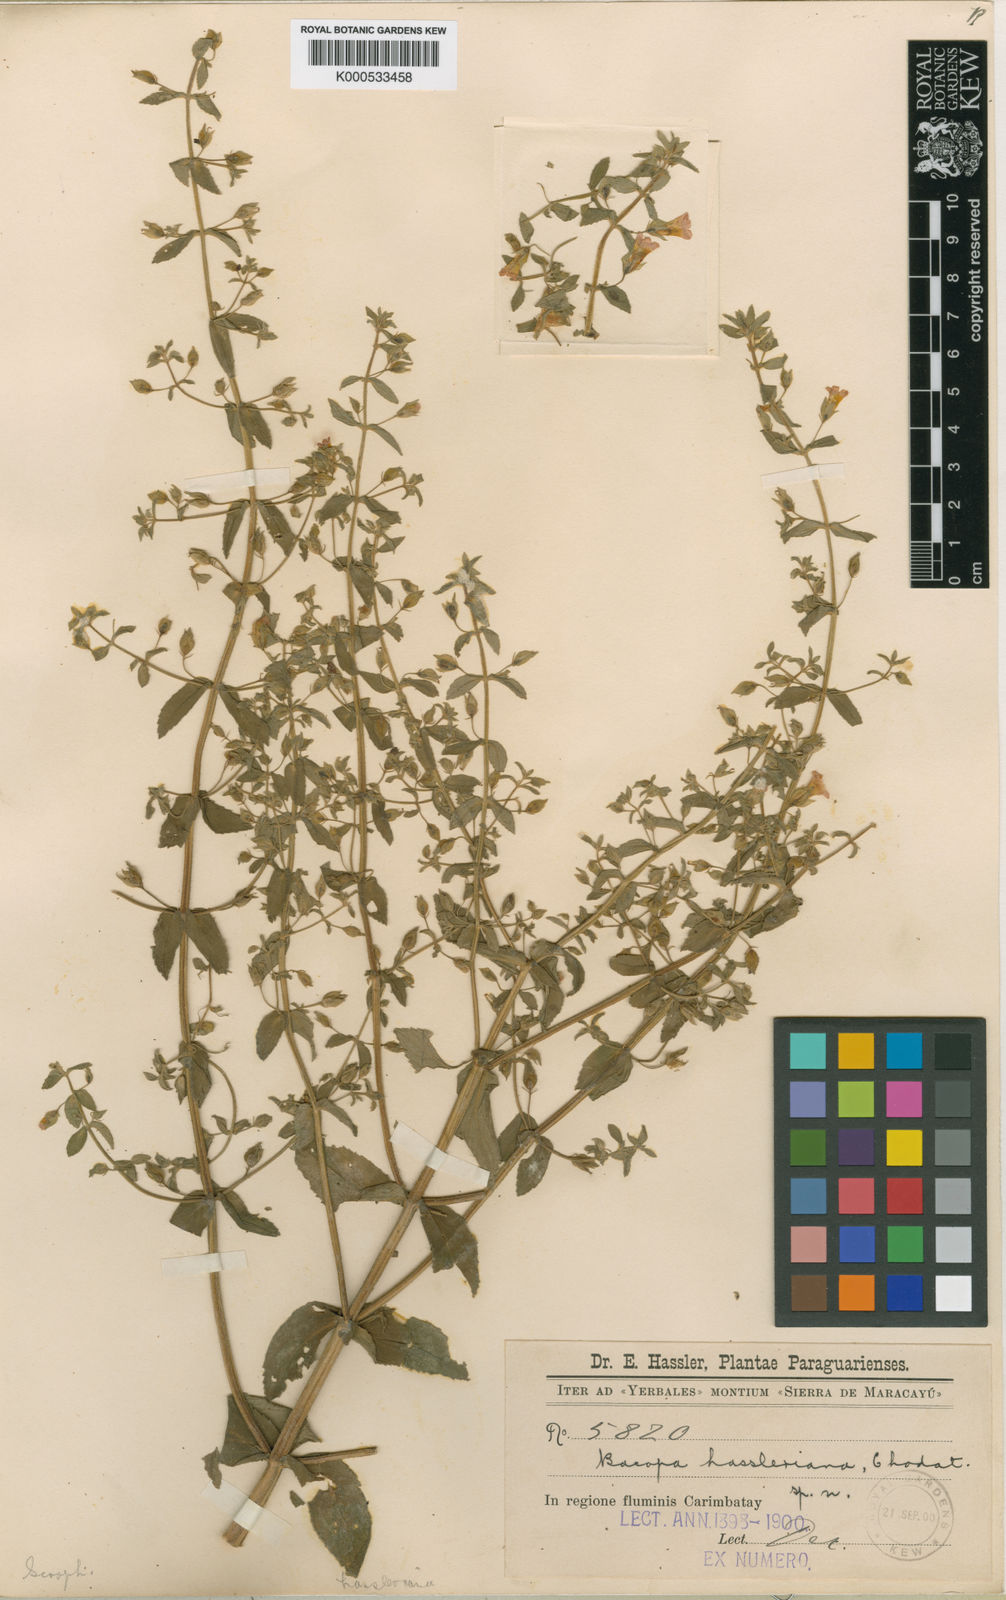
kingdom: Plantae
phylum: Tracheophyta
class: Magnoliopsida
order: Lamiales
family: Plantaginaceae
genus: Bacopa
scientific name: Bacopa scabra
